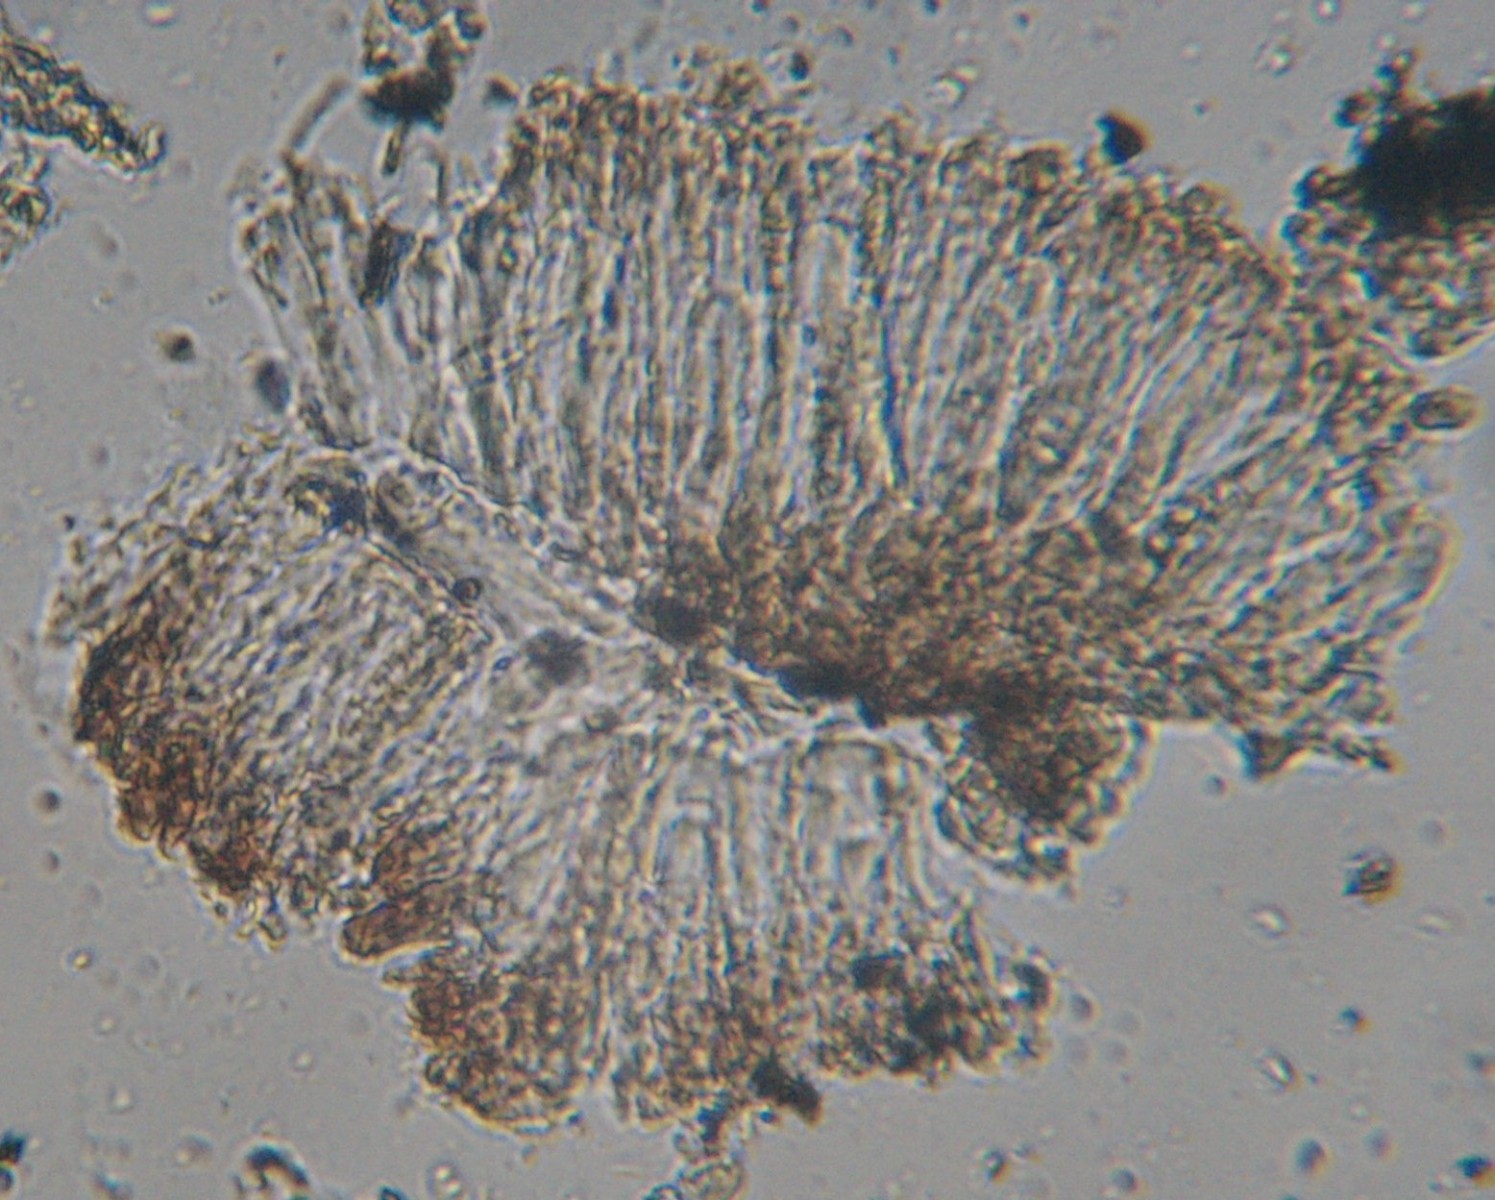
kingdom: Fungi
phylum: Ascomycota
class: Arthoniomycetes
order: Arthoniales
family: Opegraphaceae
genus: Opegrapha
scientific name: Opegrapha
